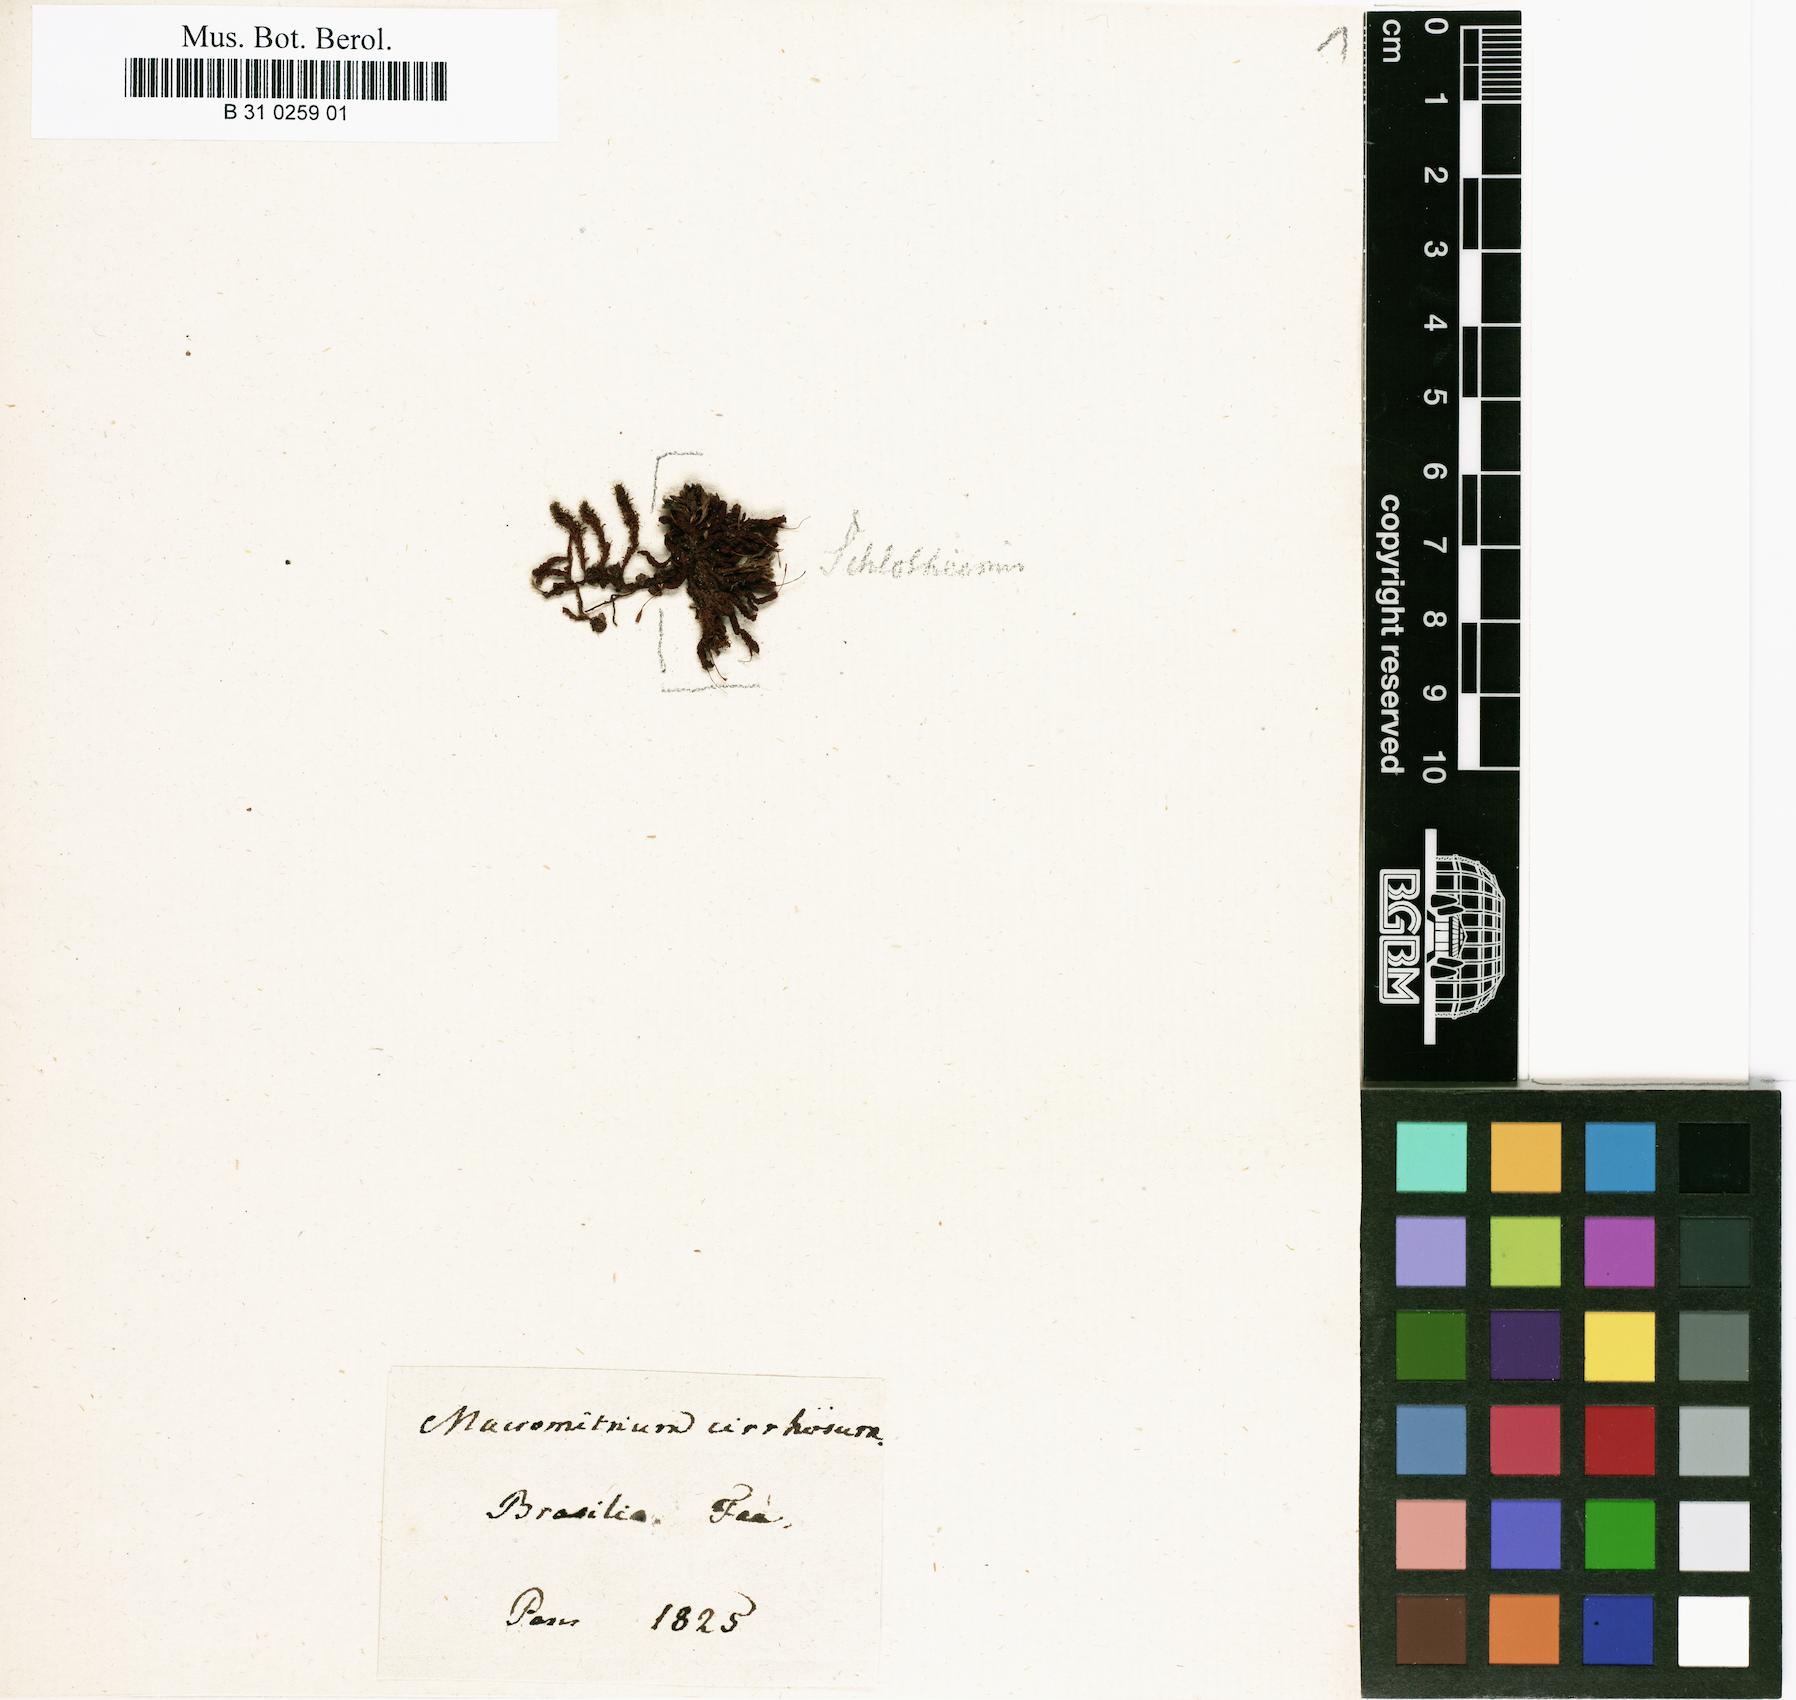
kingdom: Plantae
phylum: Bryophyta
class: Bryopsida
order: Orthotrichales
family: Orthotrichaceae
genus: Macromitrium
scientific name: Macromitrium cirrosum
